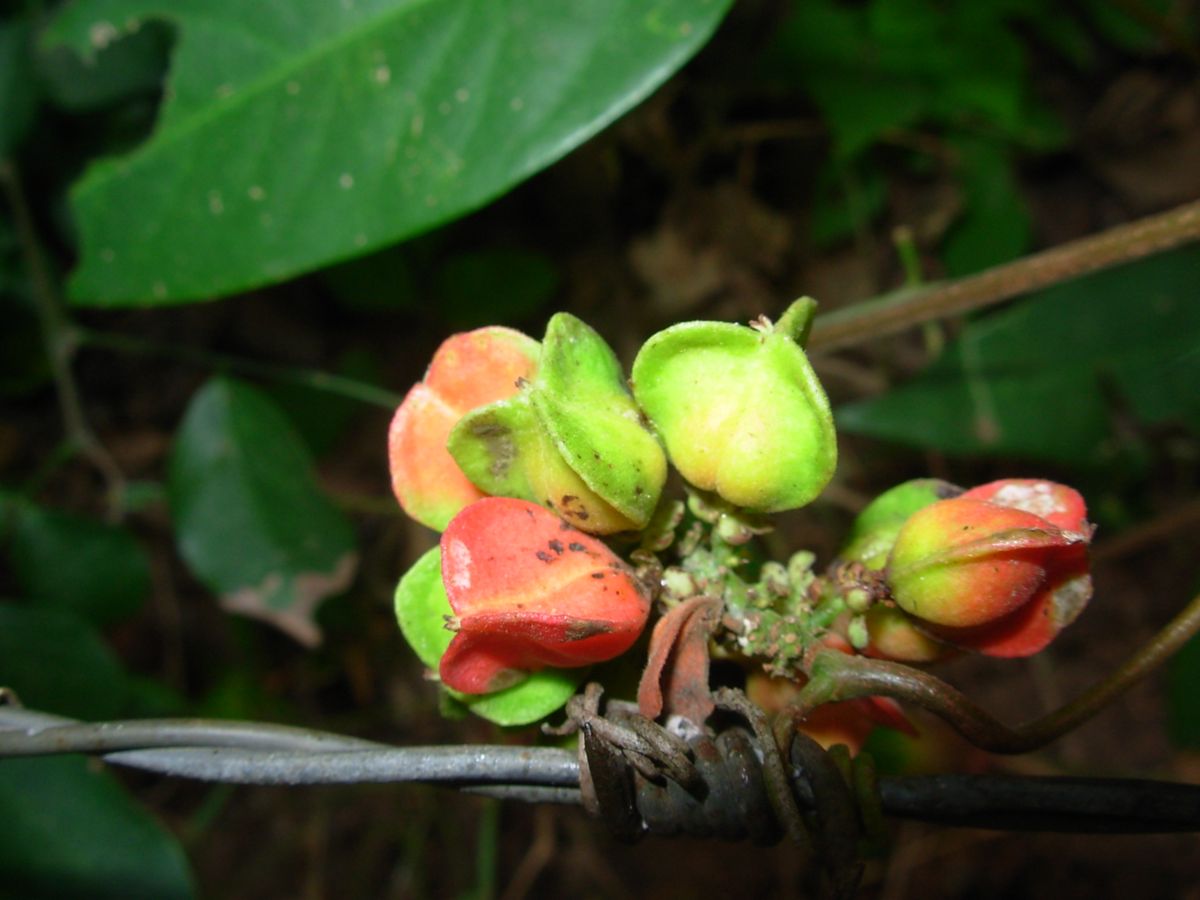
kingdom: Plantae
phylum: Tracheophyta
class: Magnoliopsida
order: Sapindales
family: Sapindaceae
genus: Paullinia
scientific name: Paullinia fuscescens
